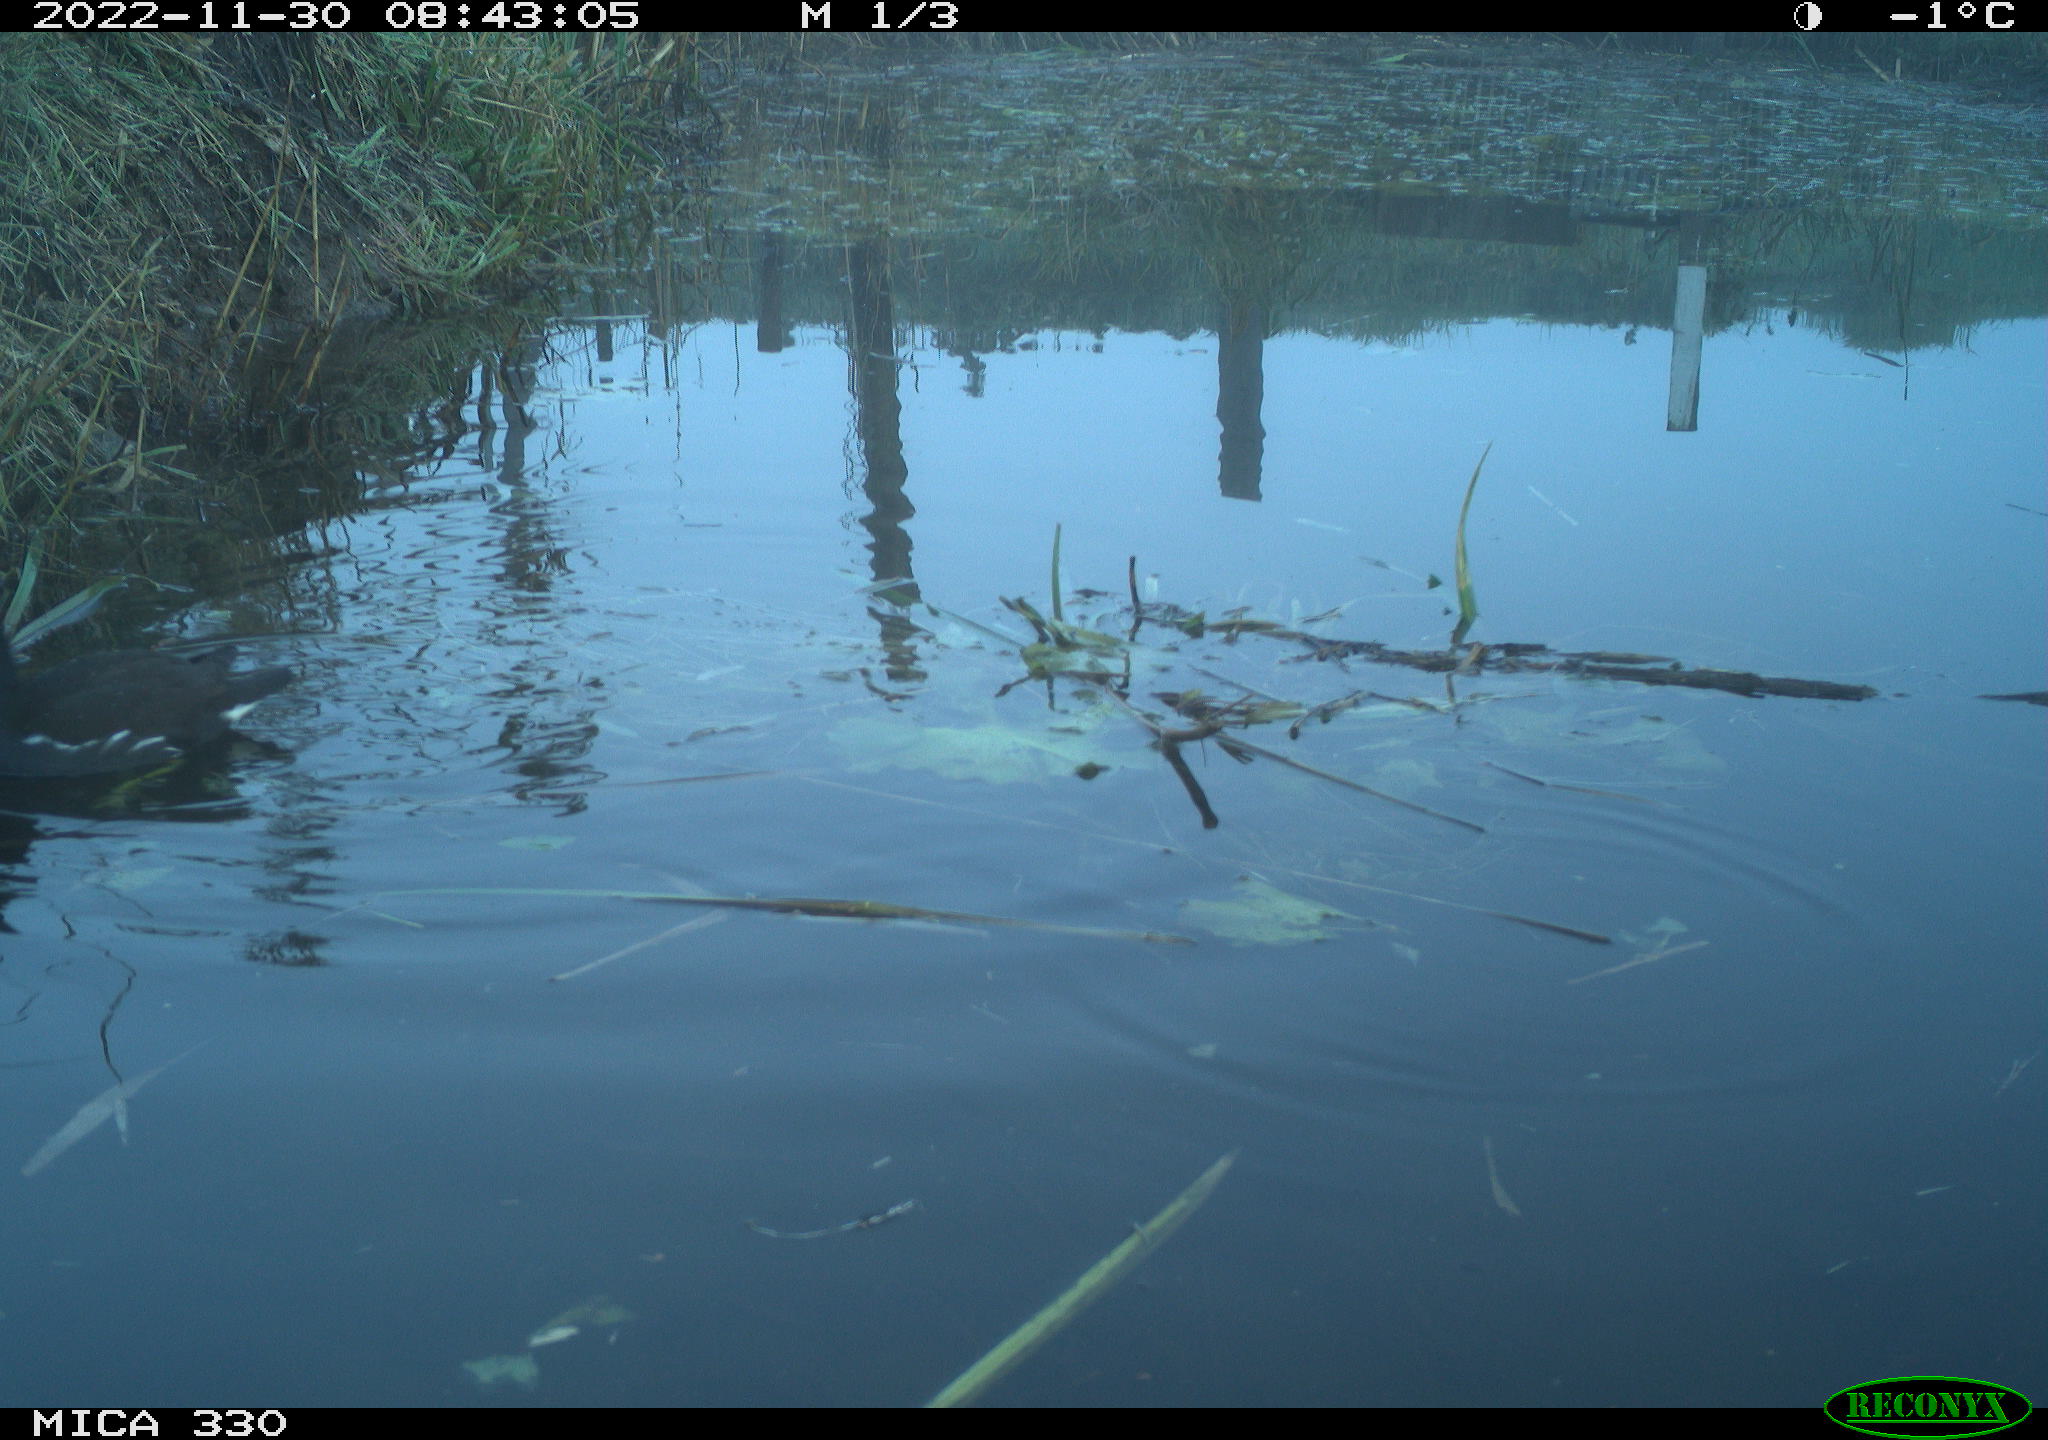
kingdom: Animalia
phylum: Chordata
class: Aves
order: Gruiformes
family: Rallidae
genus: Gallinula
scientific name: Gallinula chloropus
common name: Common moorhen
